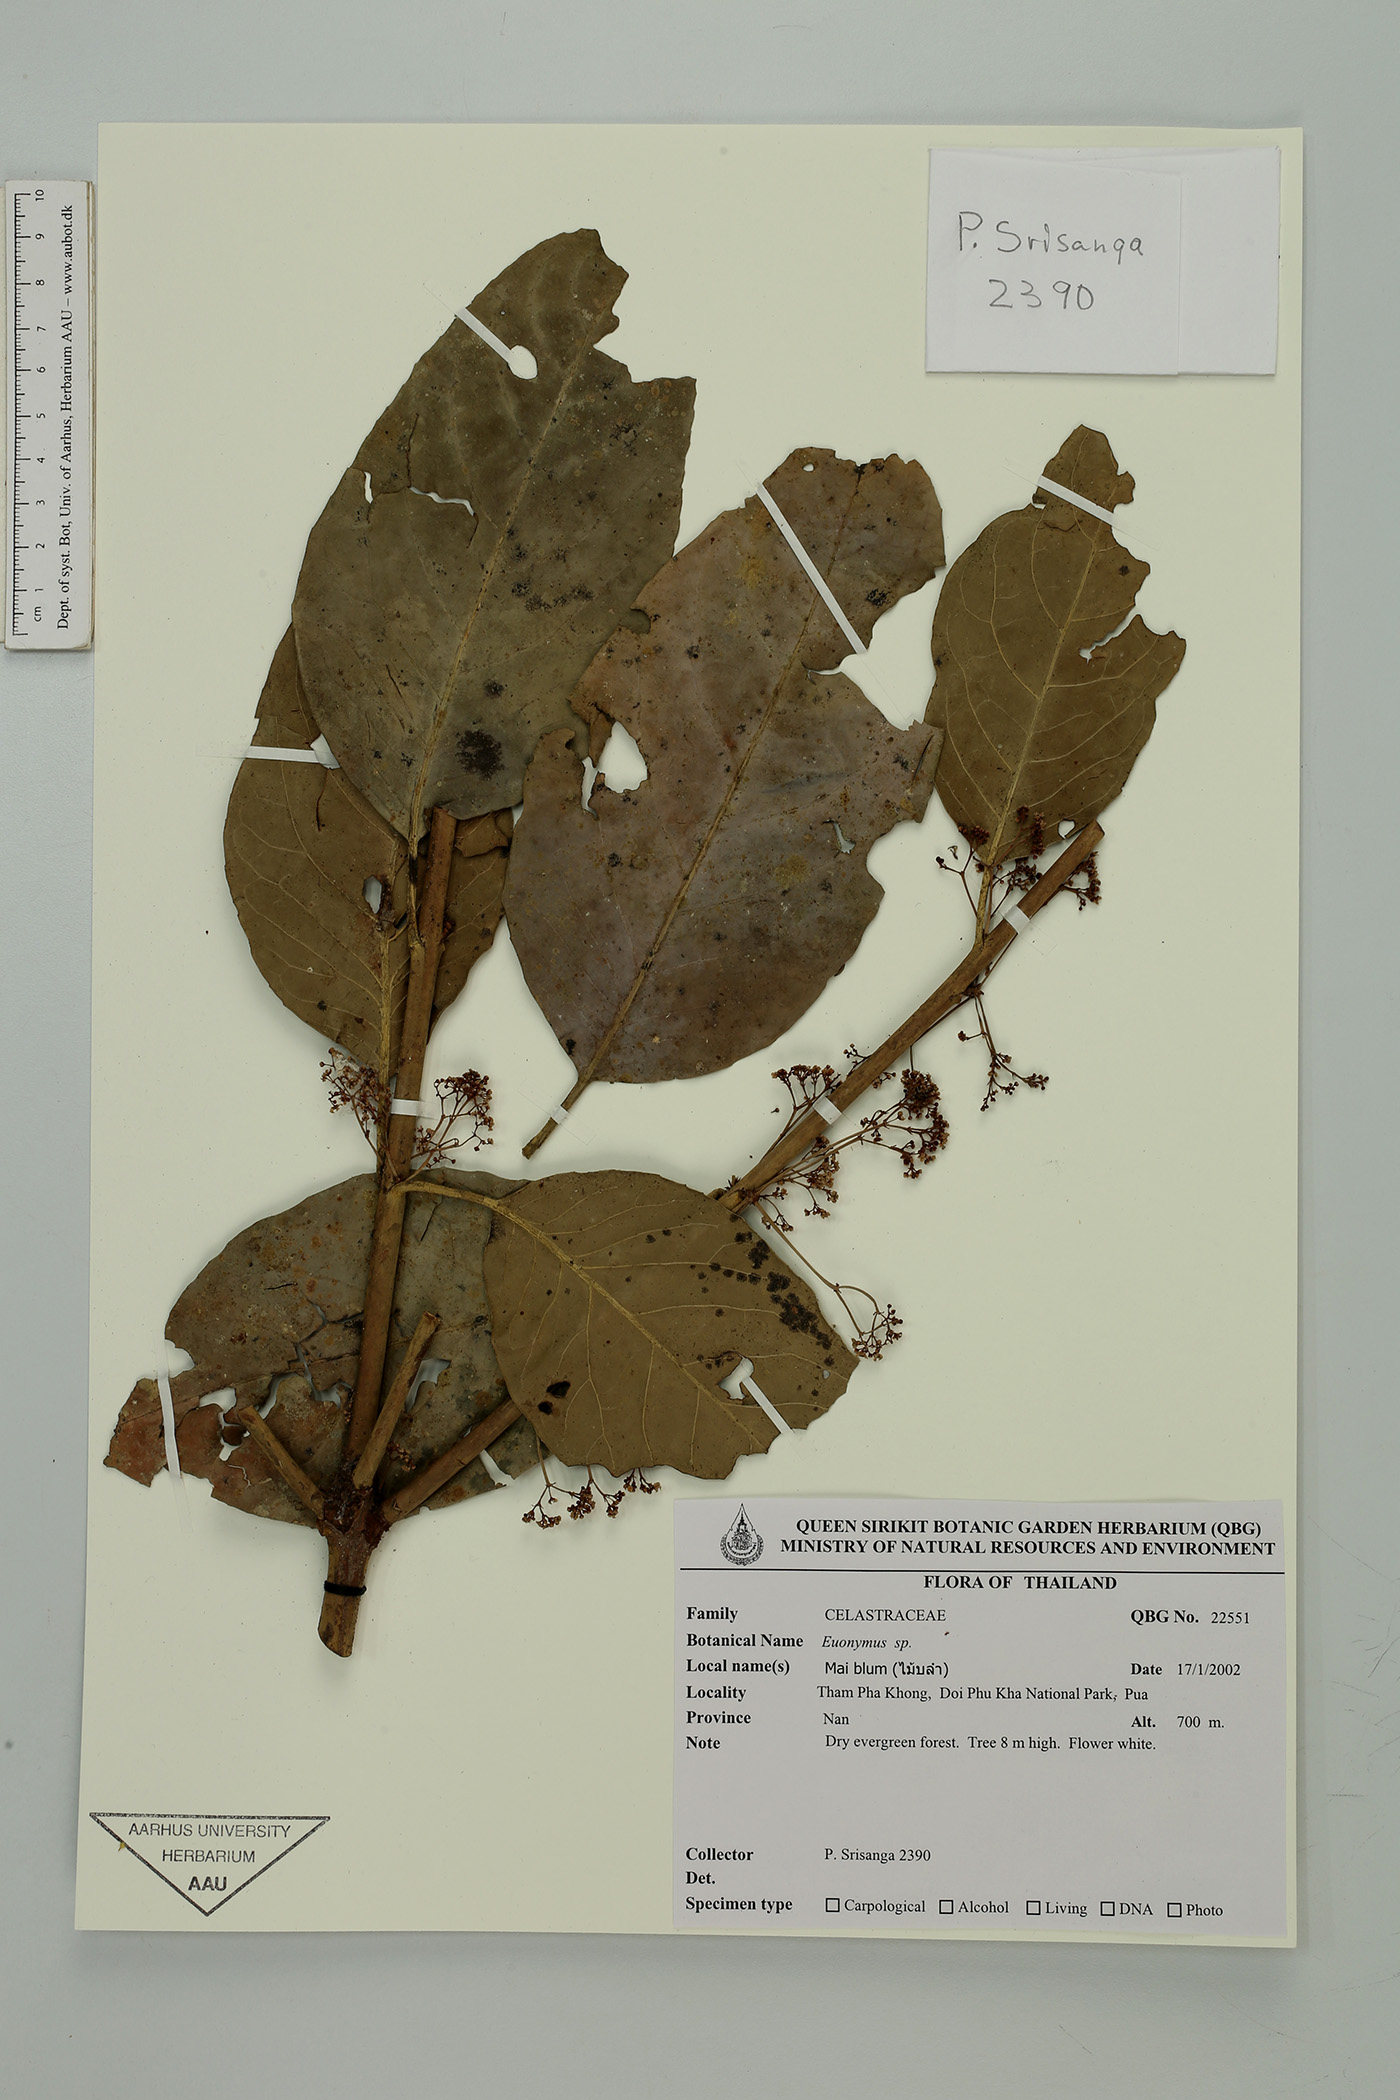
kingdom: Plantae
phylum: Tracheophyta
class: Magnoliopsida
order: Celastrales
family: Celastraceae
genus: Euonymus
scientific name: Euonymus
